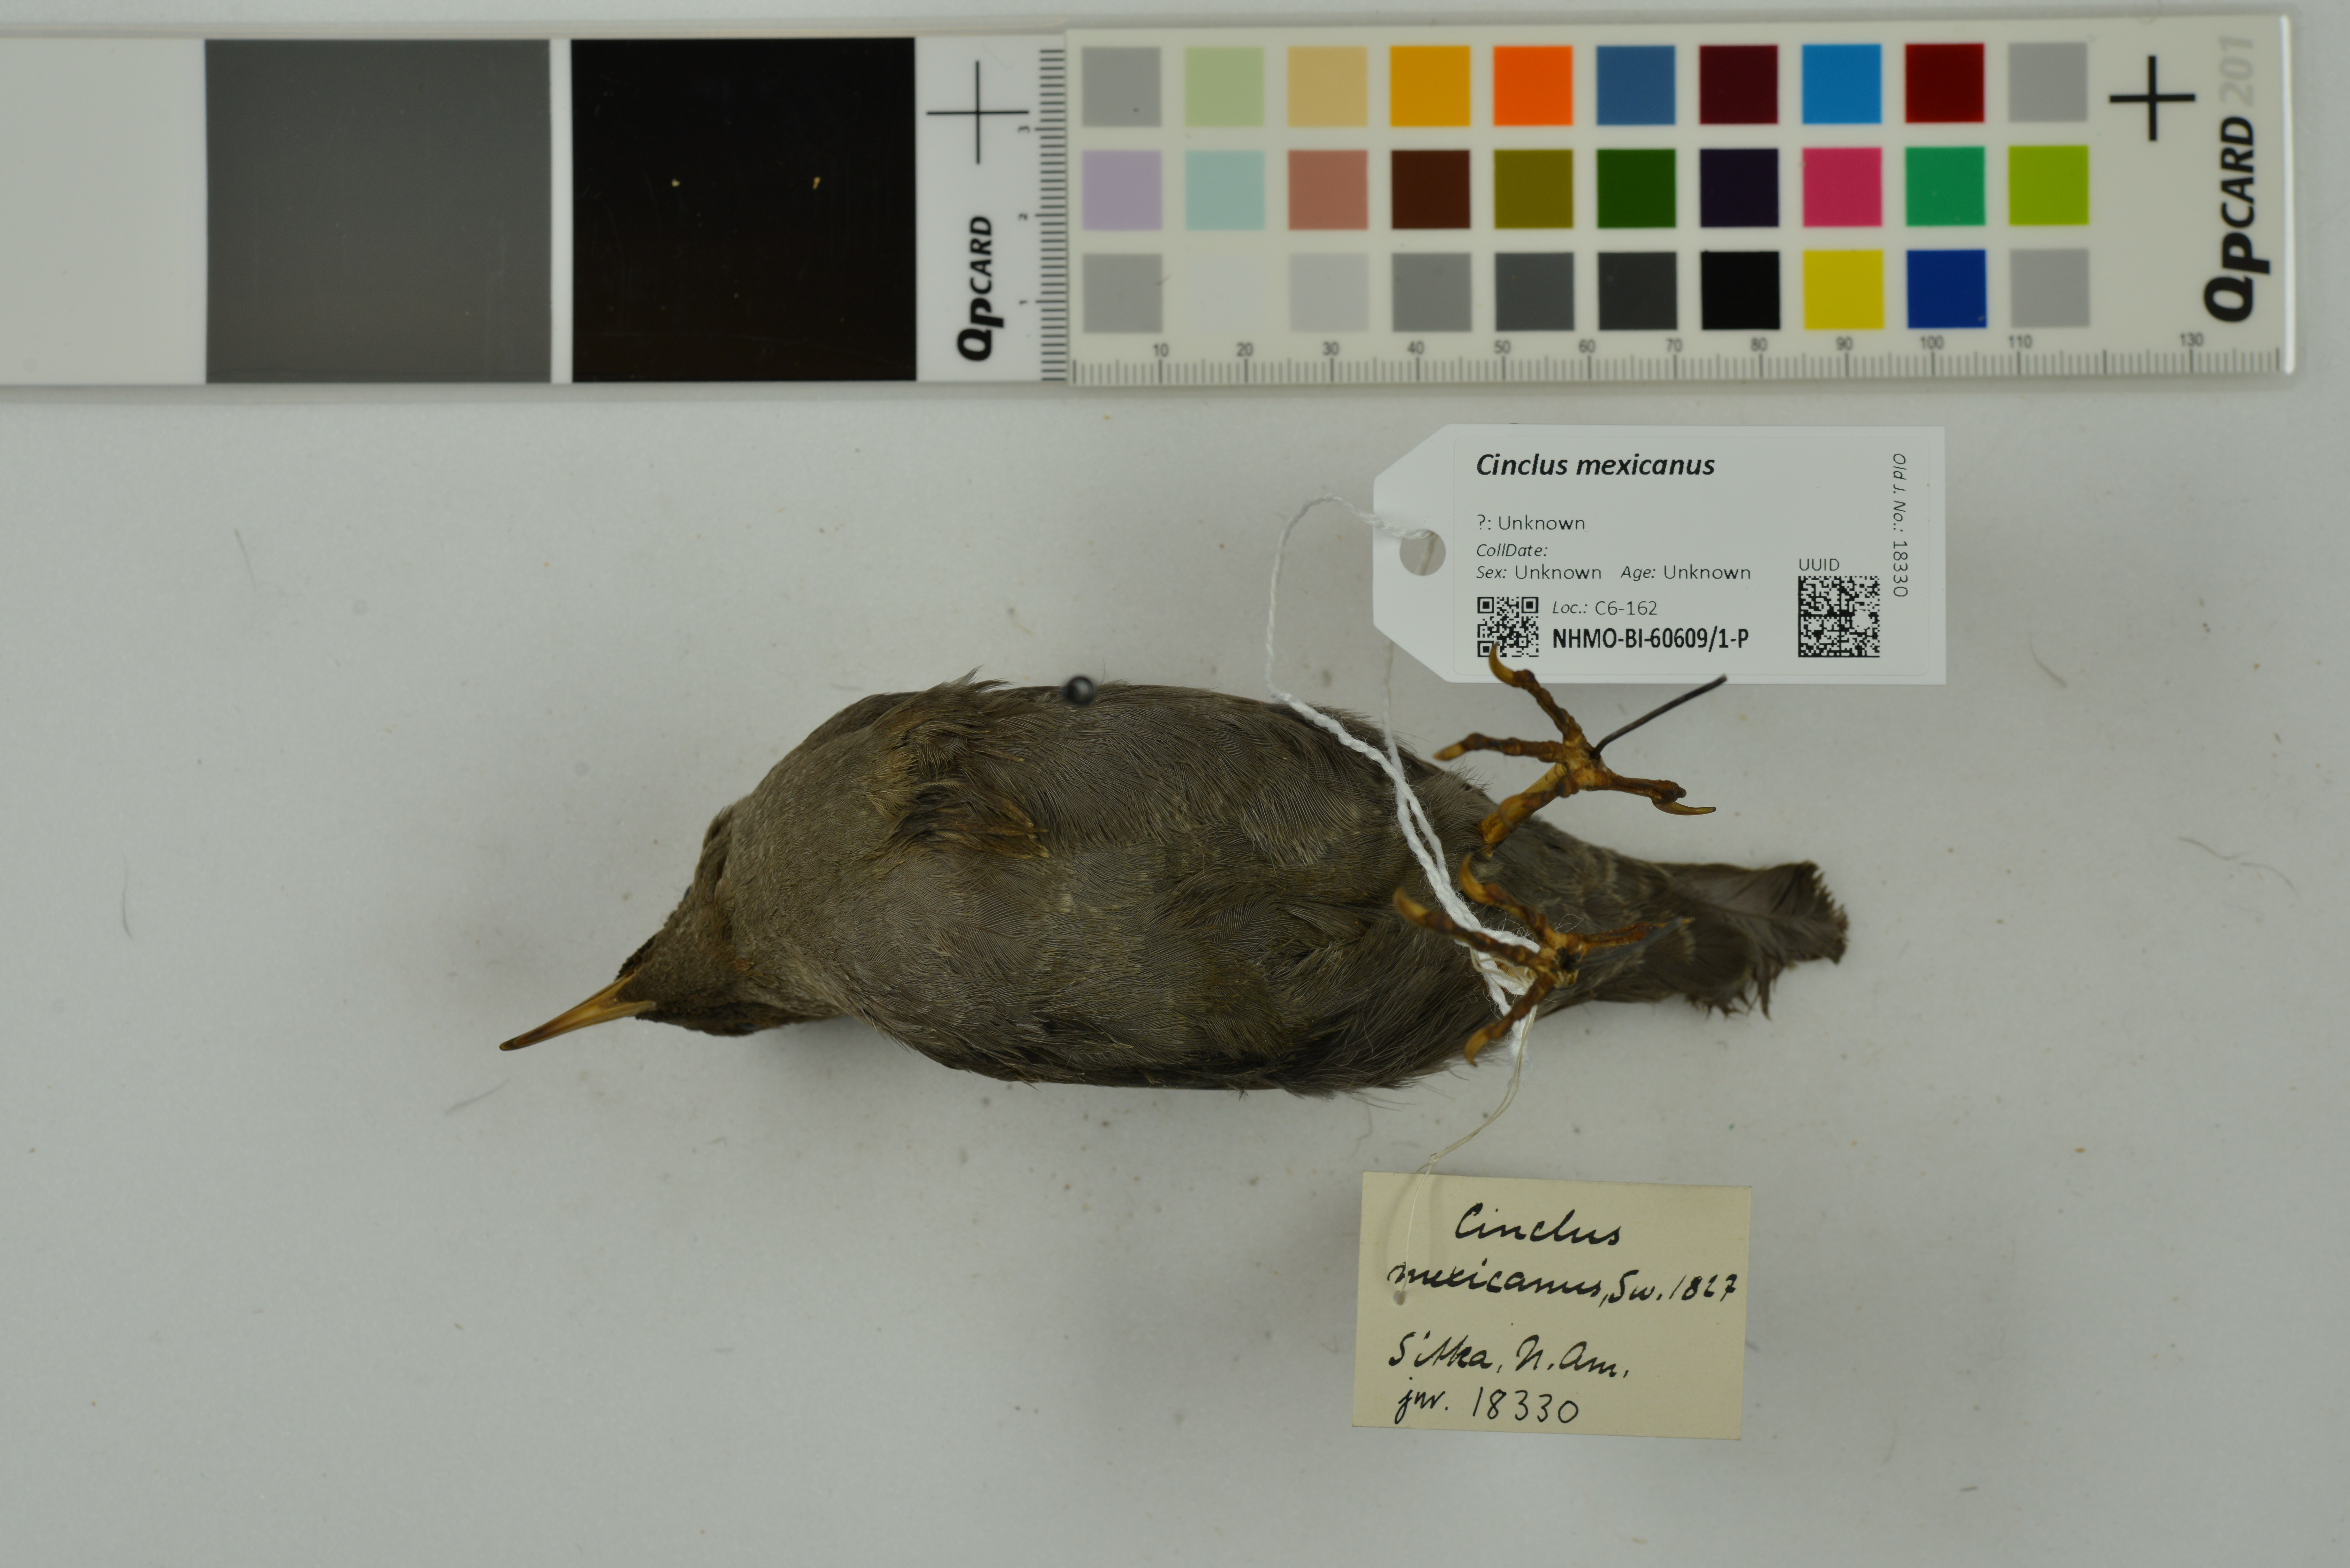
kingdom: Animalia
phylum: Chordata
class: Aves
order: Passeriformes
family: Cinclidae
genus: Cinclus
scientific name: Cinclus mexicanus
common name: American dipper
